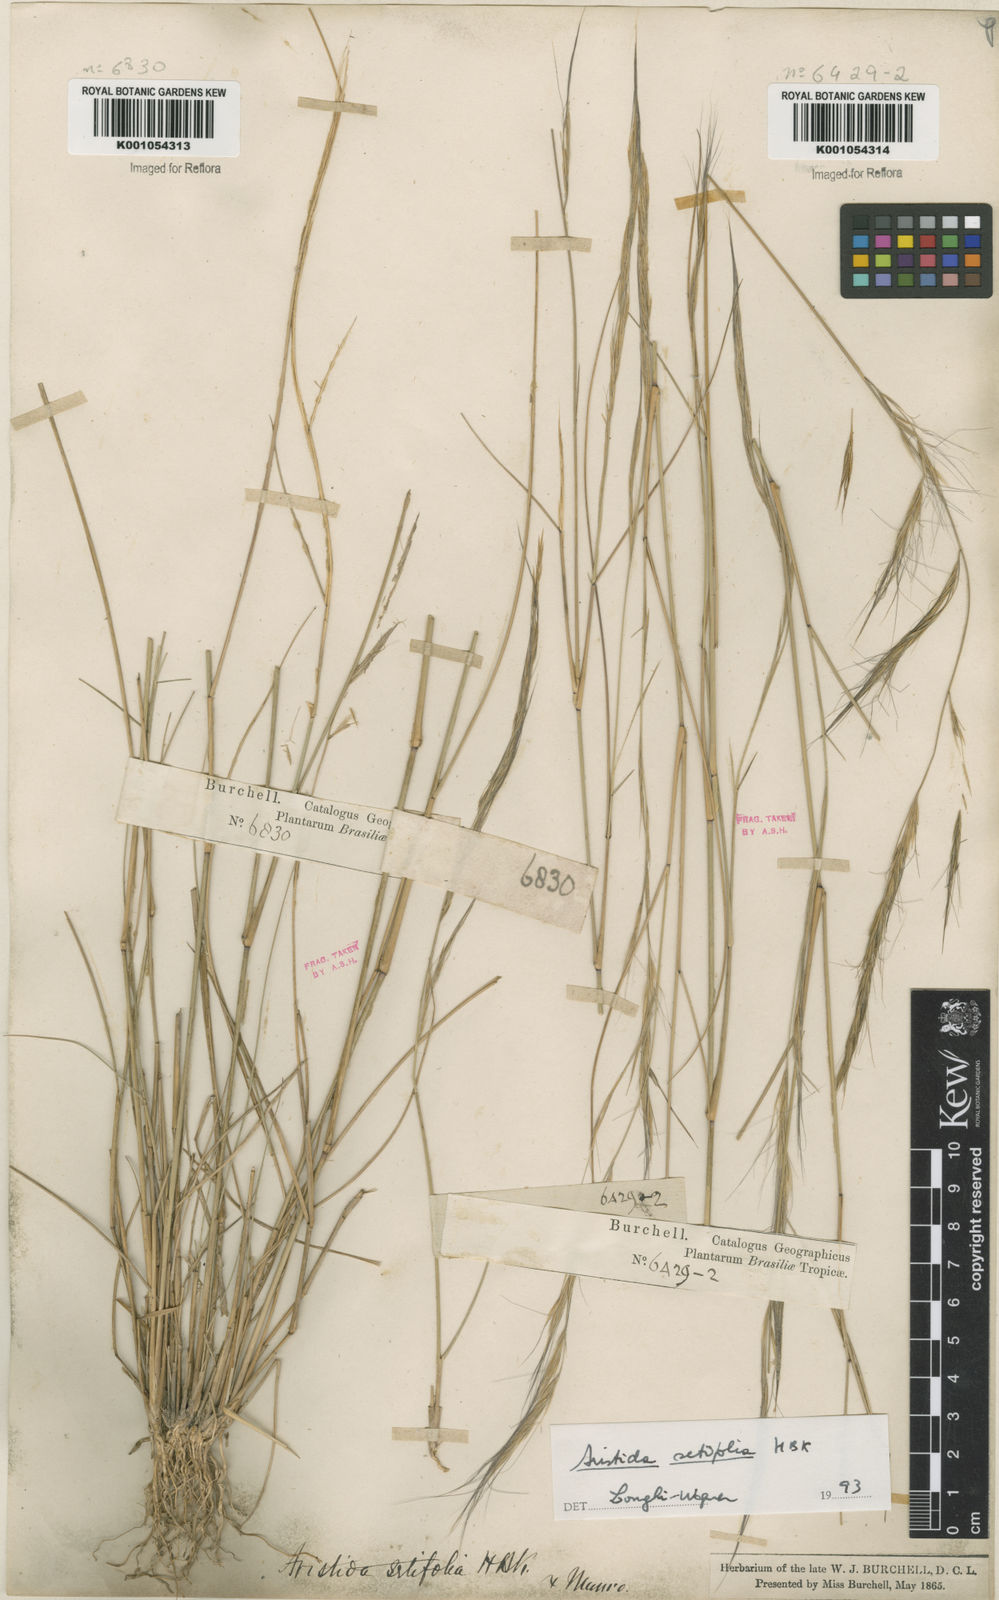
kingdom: Plantae
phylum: Tracheophyta
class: Liliopsida
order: Poales
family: Poaceae
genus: Aristida
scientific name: Aristida setifolia
